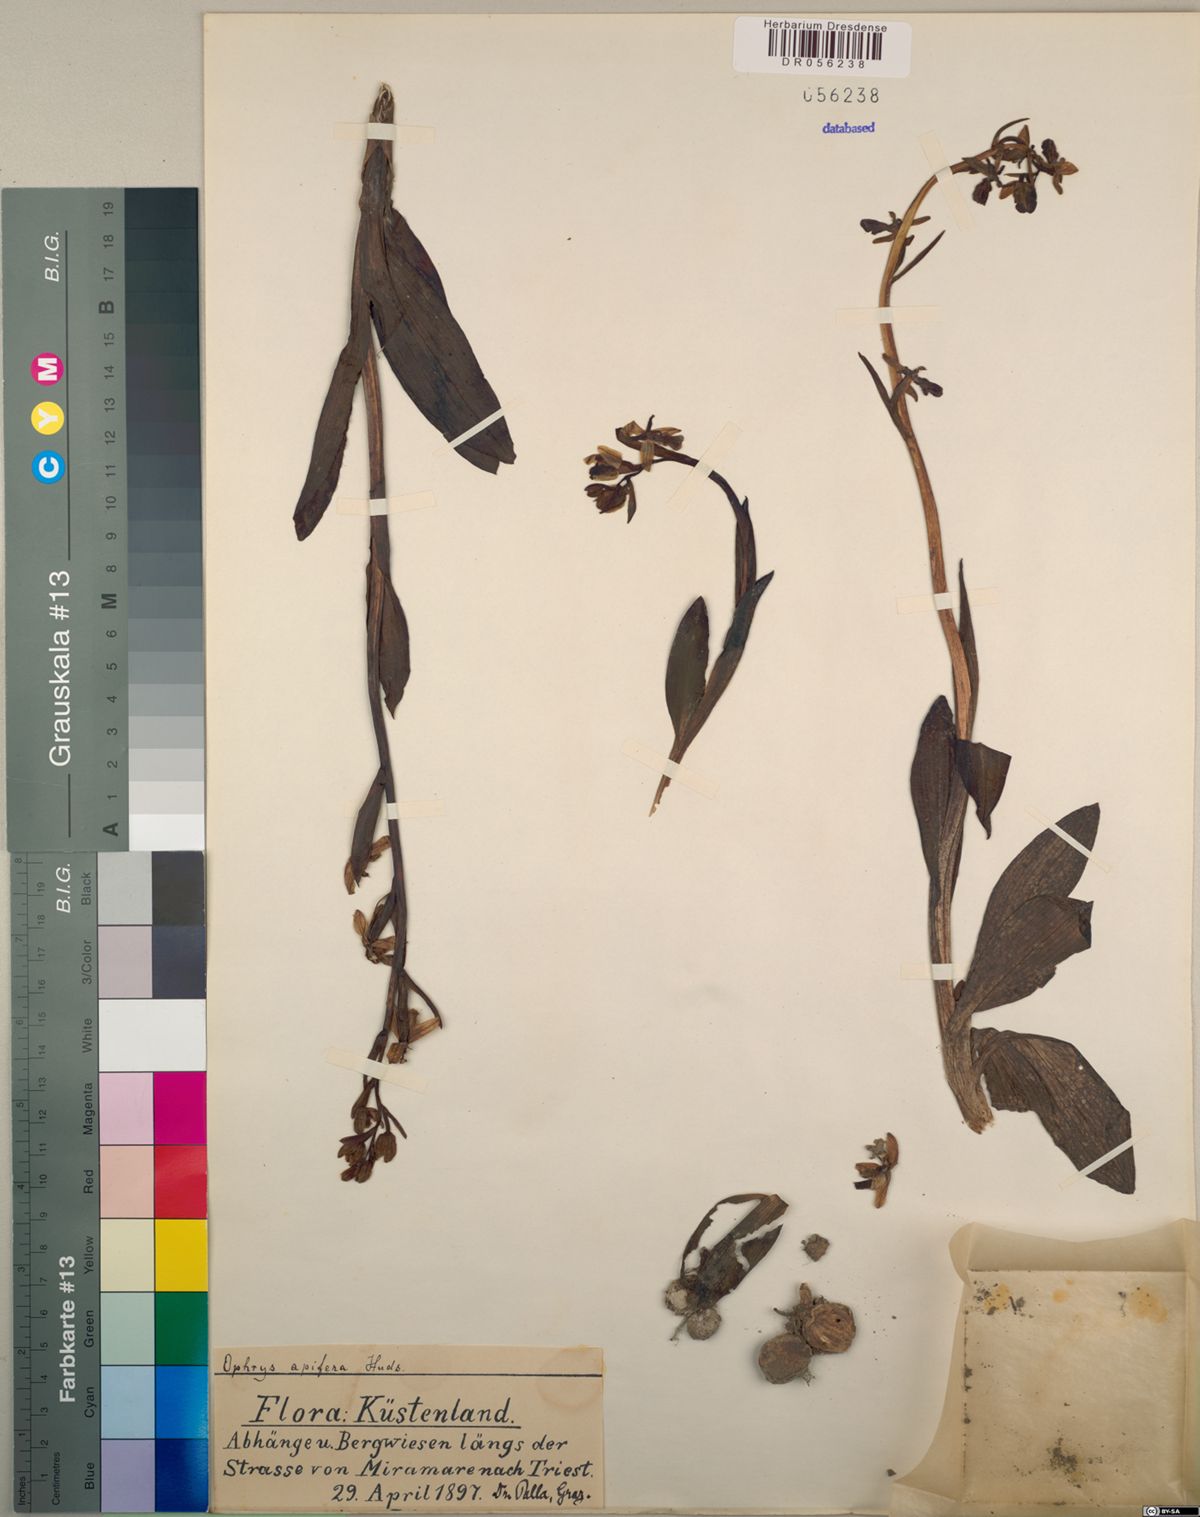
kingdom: Plantae
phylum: Tracheophyta
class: Liliopsida
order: Asparagales
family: Orchidaceae
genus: Ophrys
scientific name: Ophrys apifera
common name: Bee orchid
